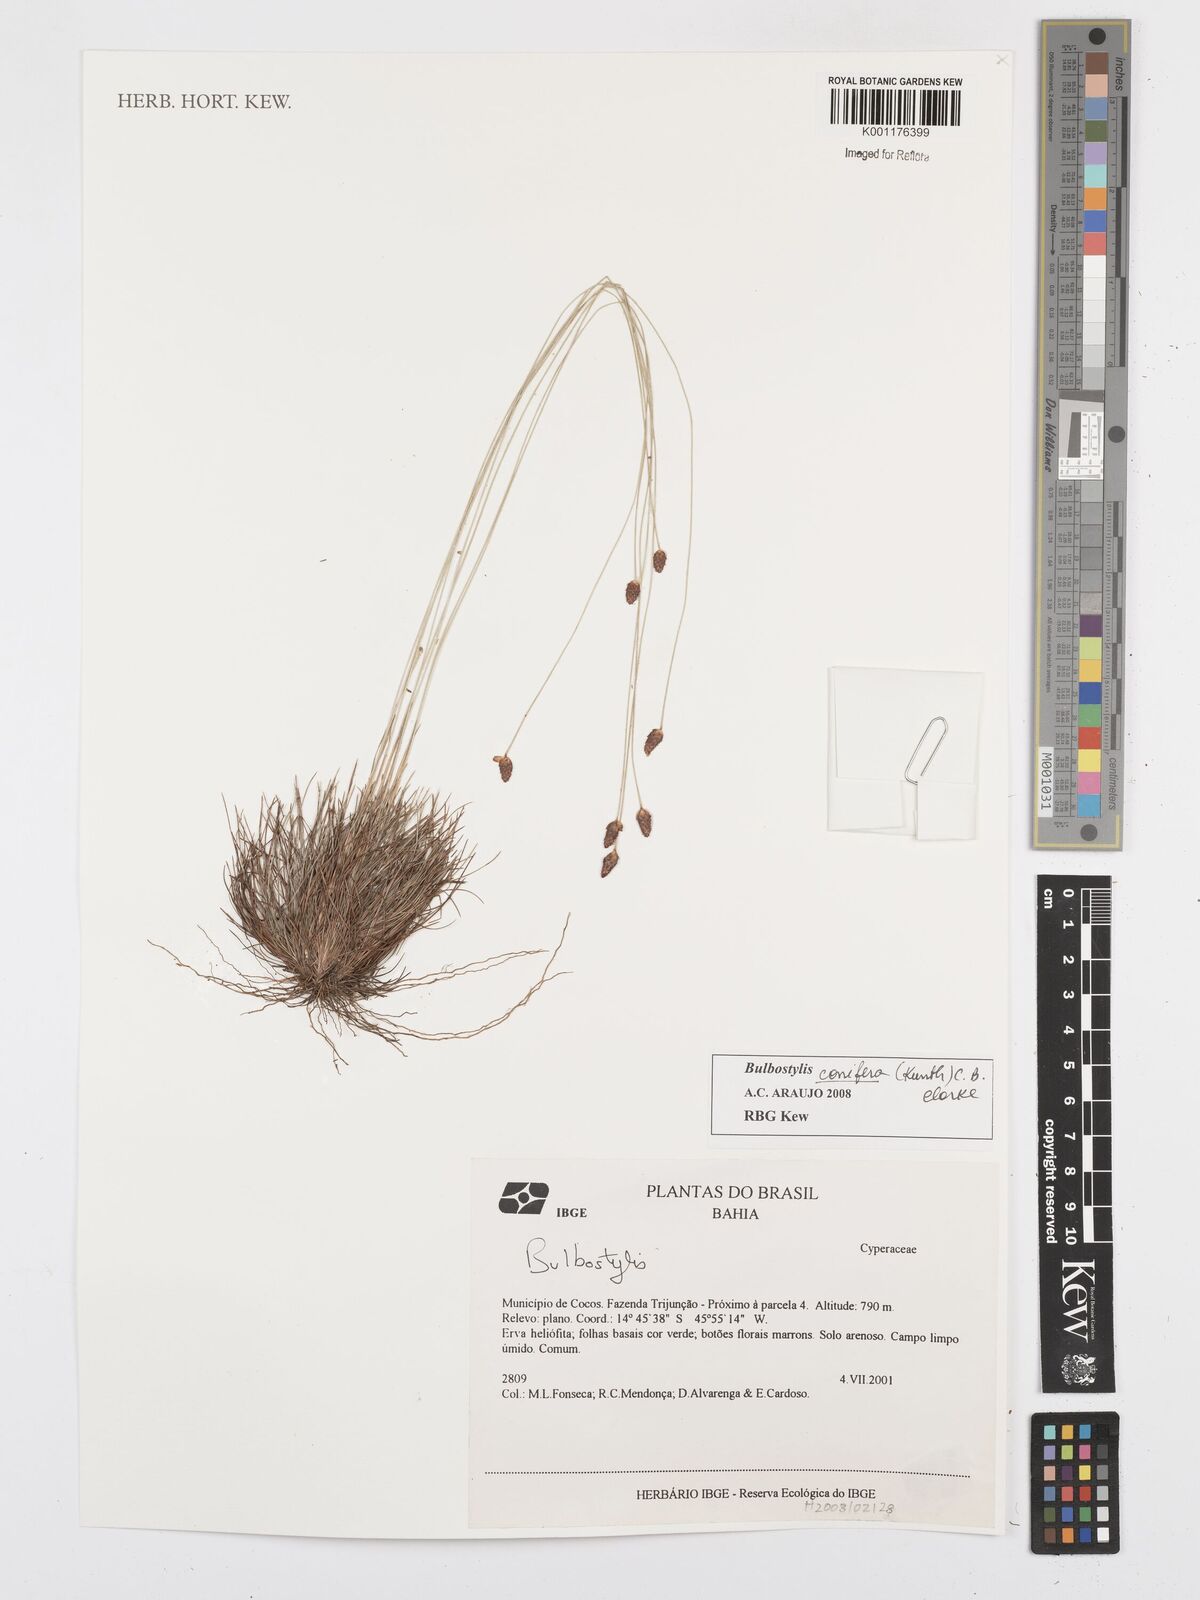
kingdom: Plantae
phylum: Tracheophyta
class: Liliopsida
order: Poales
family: Cyperaceae
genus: Bulbostylis
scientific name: Bulbostylis conifera
